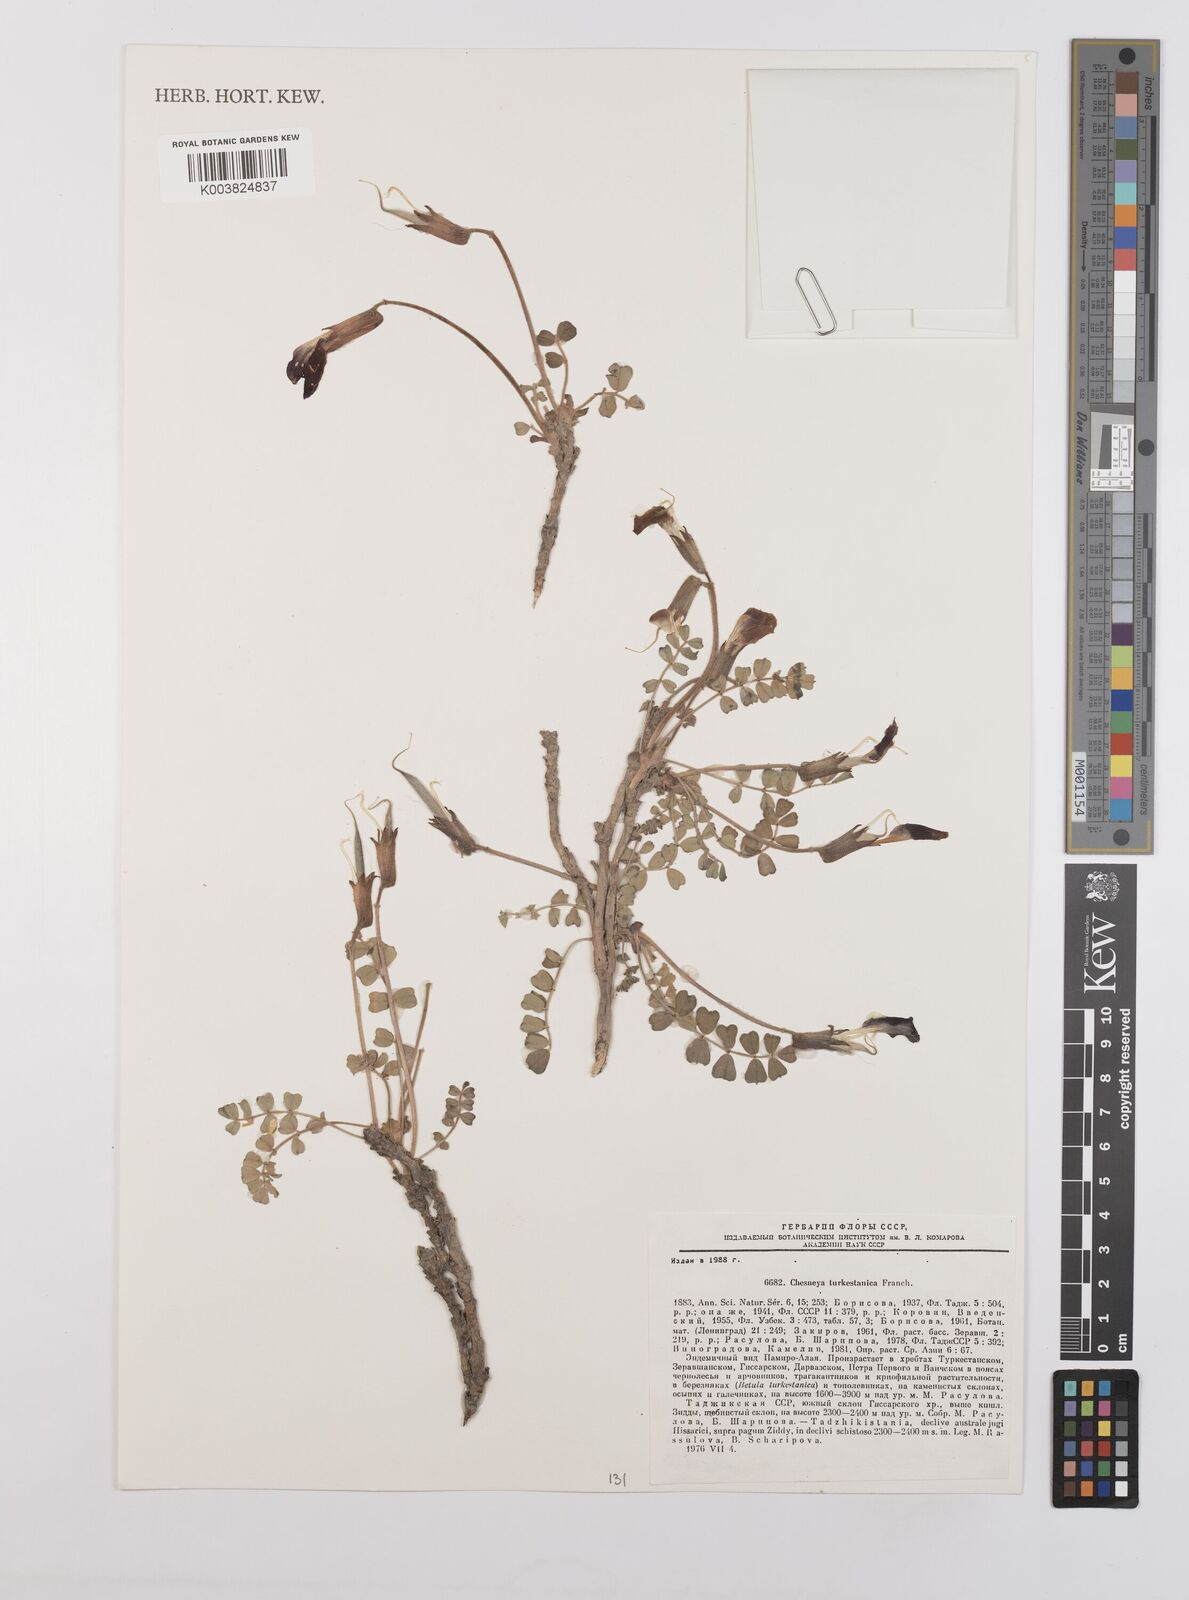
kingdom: Plantae
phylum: Tracheophyta
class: Magnoliopsida
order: Fabales
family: Fabaceae
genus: Chesneya
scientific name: Chesneya turkestanica
